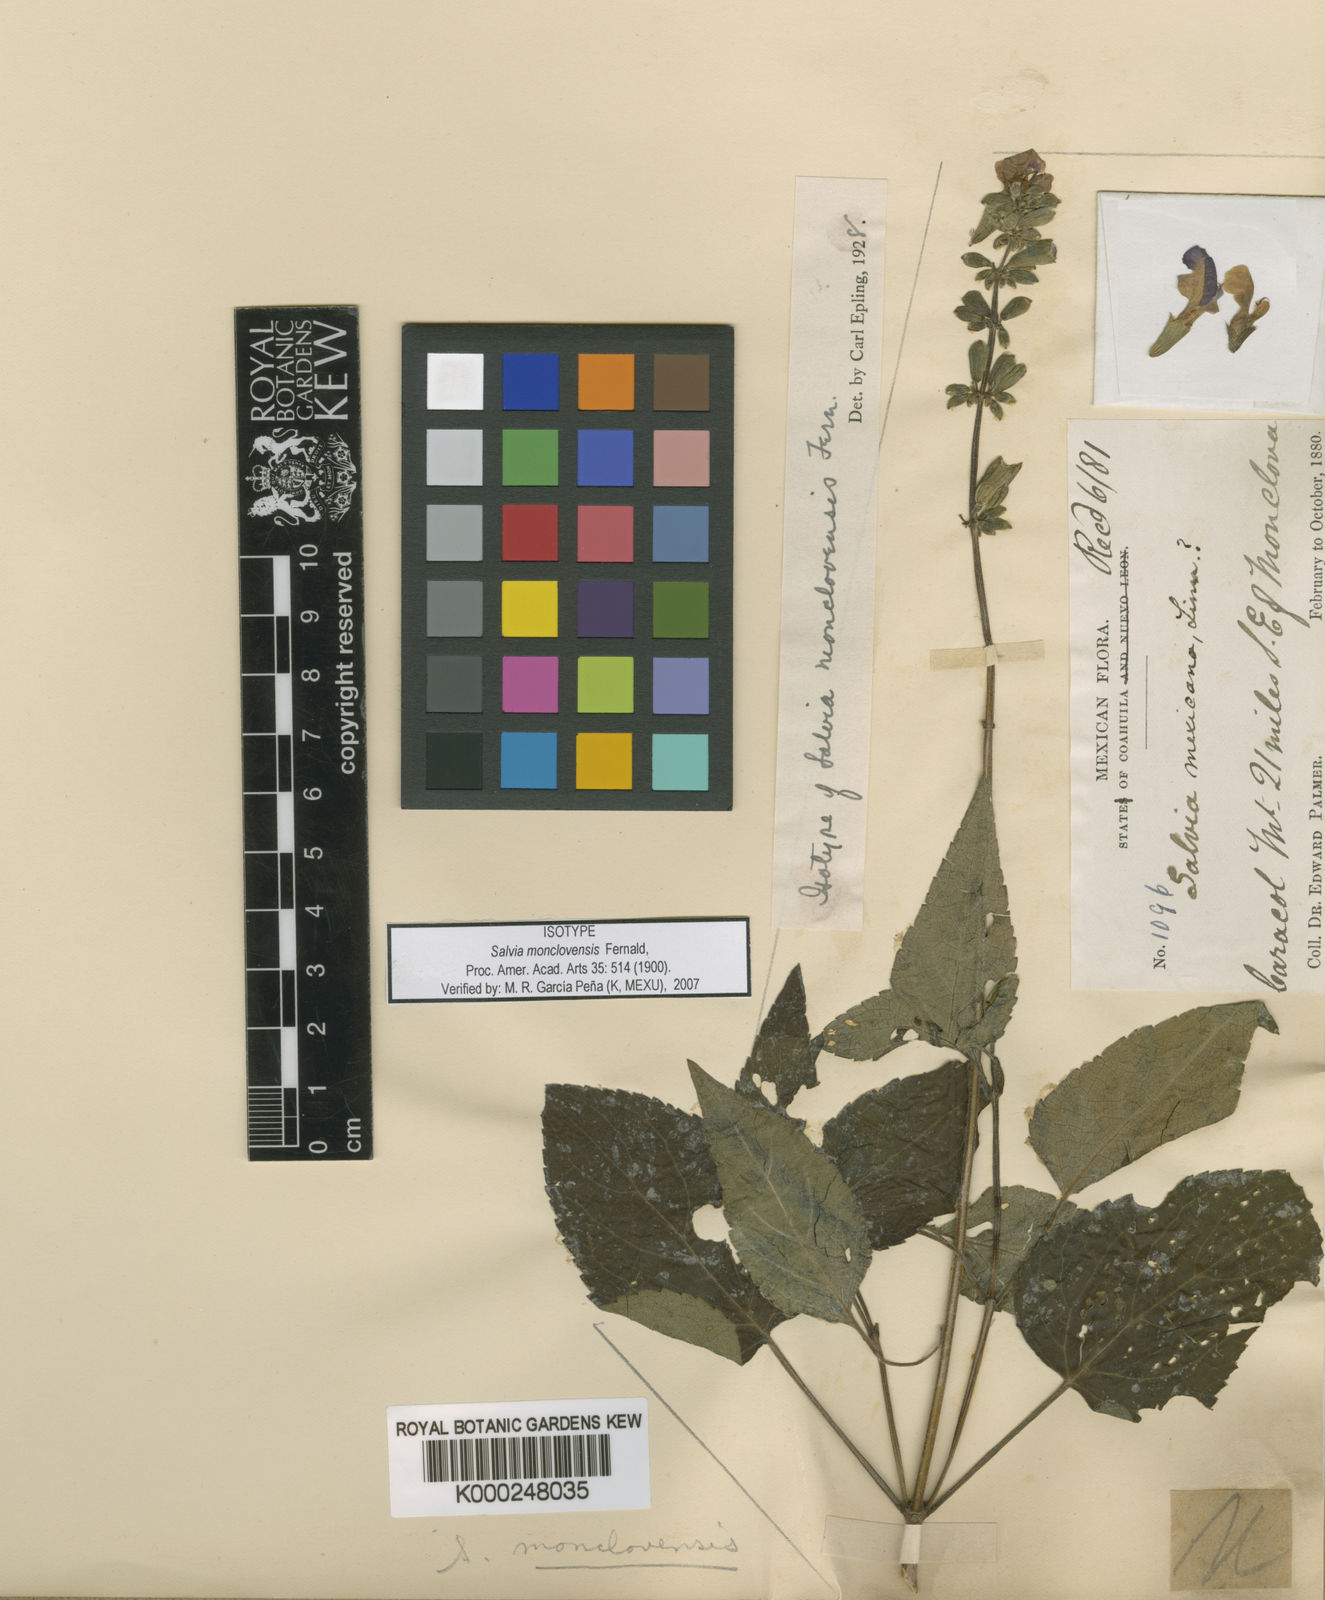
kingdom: Plantae
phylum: Tracheophyta
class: Magnoliopsida
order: Lamiales
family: Lamiaceae
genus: Salvia
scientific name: Salvia monclovensis
